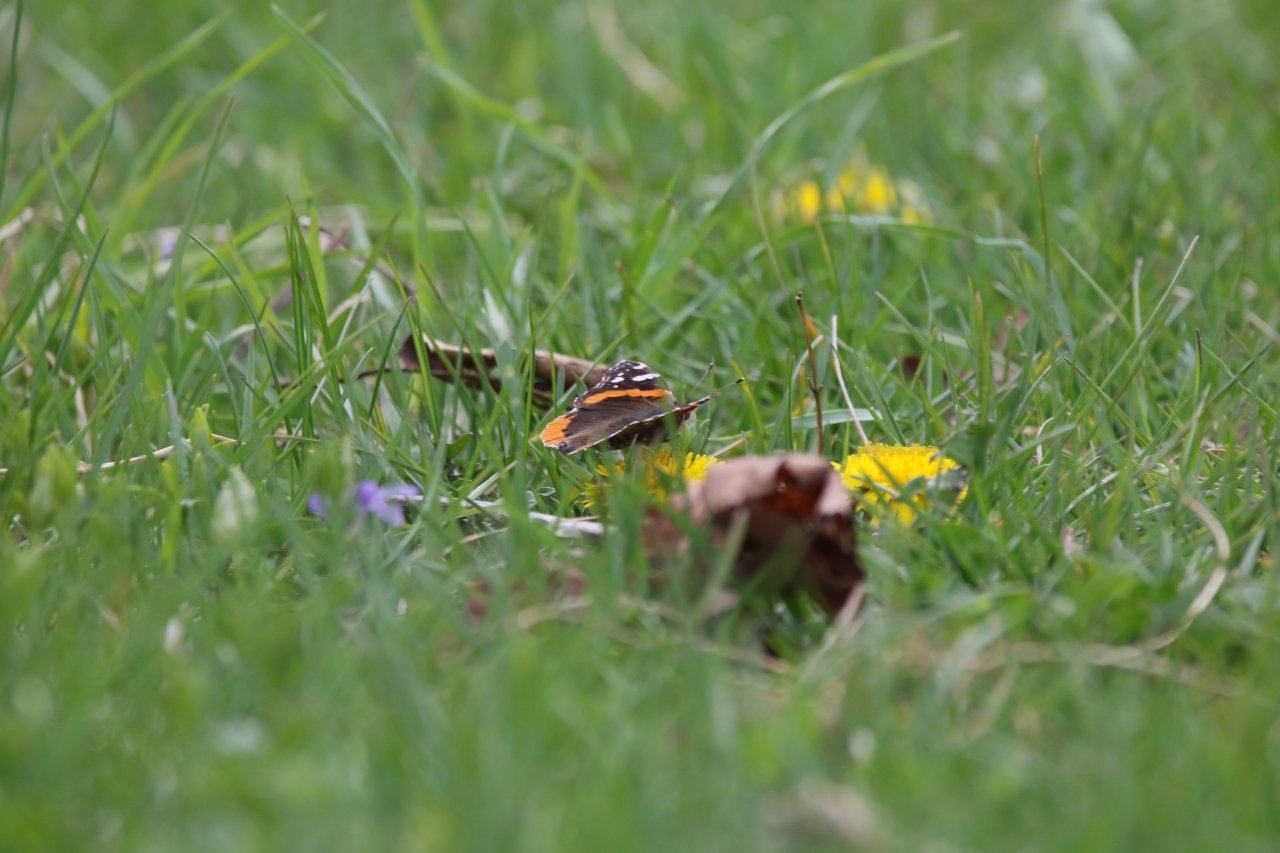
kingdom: Animalia
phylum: Arthropoda
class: Insecta
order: Lepidoptera
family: Nymphalidae
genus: Vanessa
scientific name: Vanessa atalanta
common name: Red Admiral
